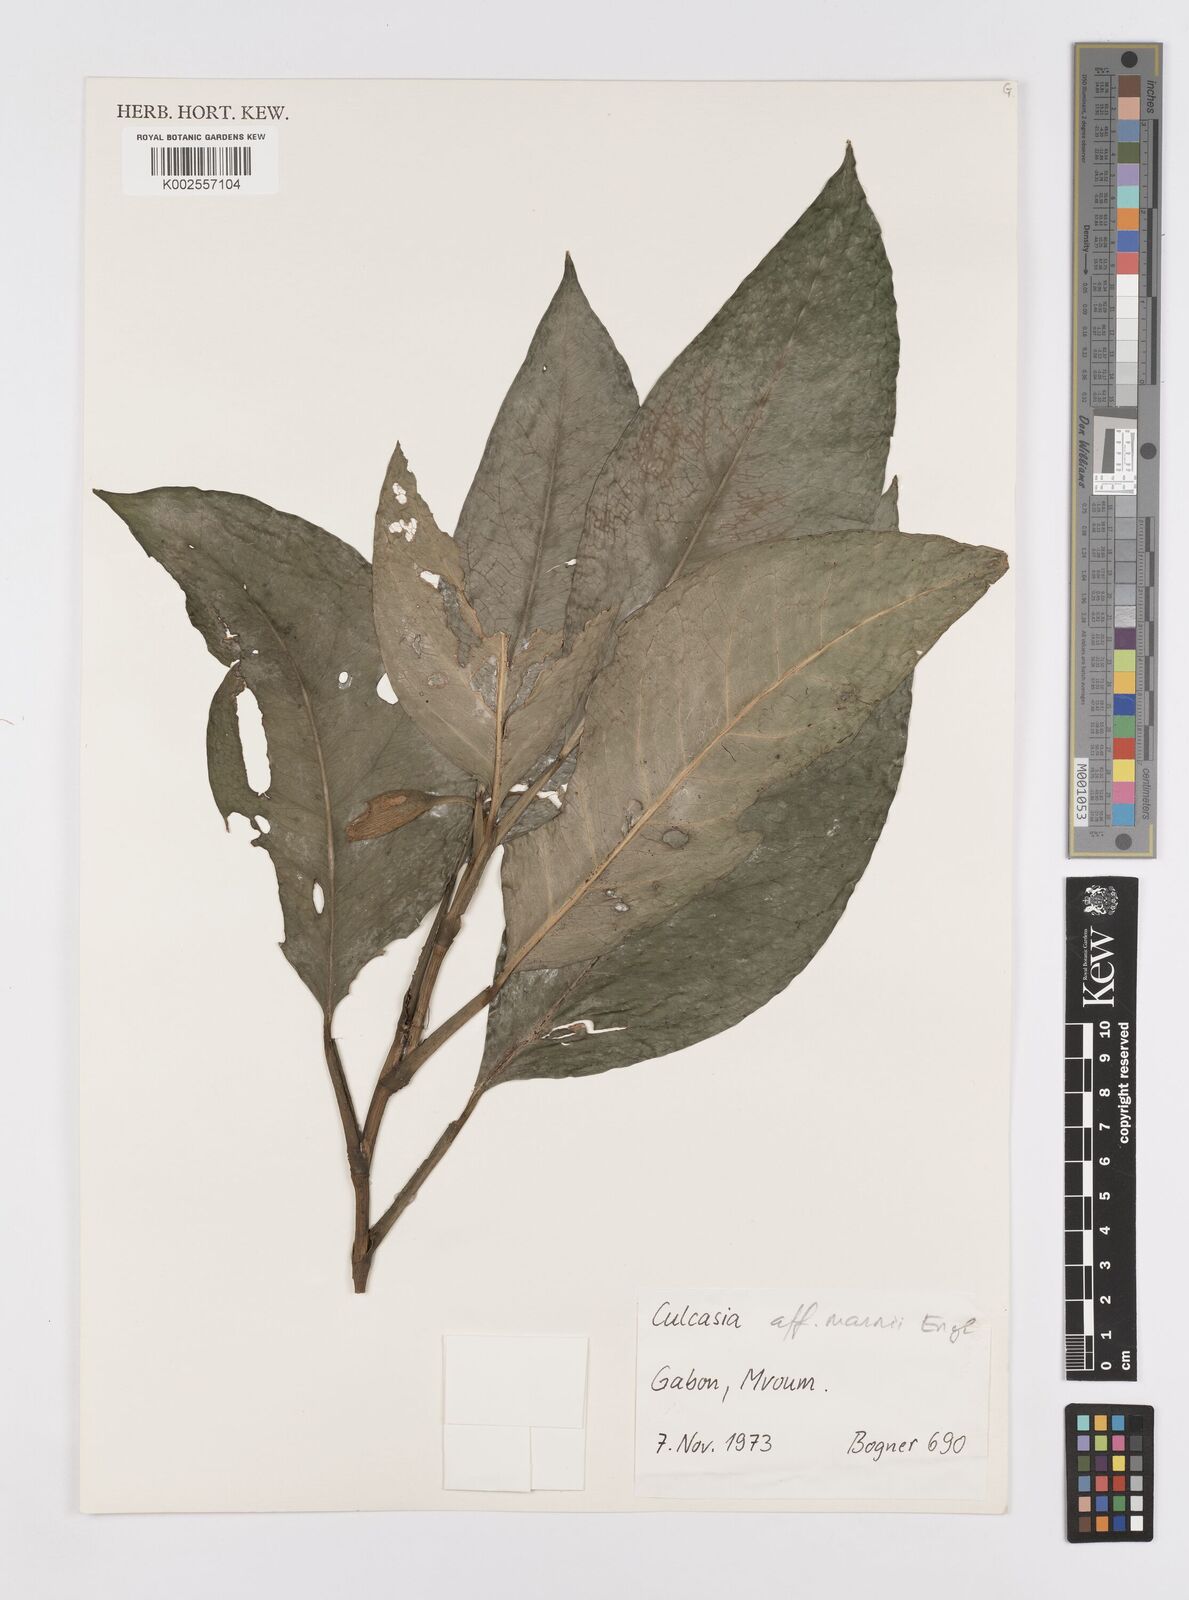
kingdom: Plantae
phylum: Tracheophyta
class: Liliopsida
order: Alismatales
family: Araceae
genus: Culcasia
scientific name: Culcasia mannii
